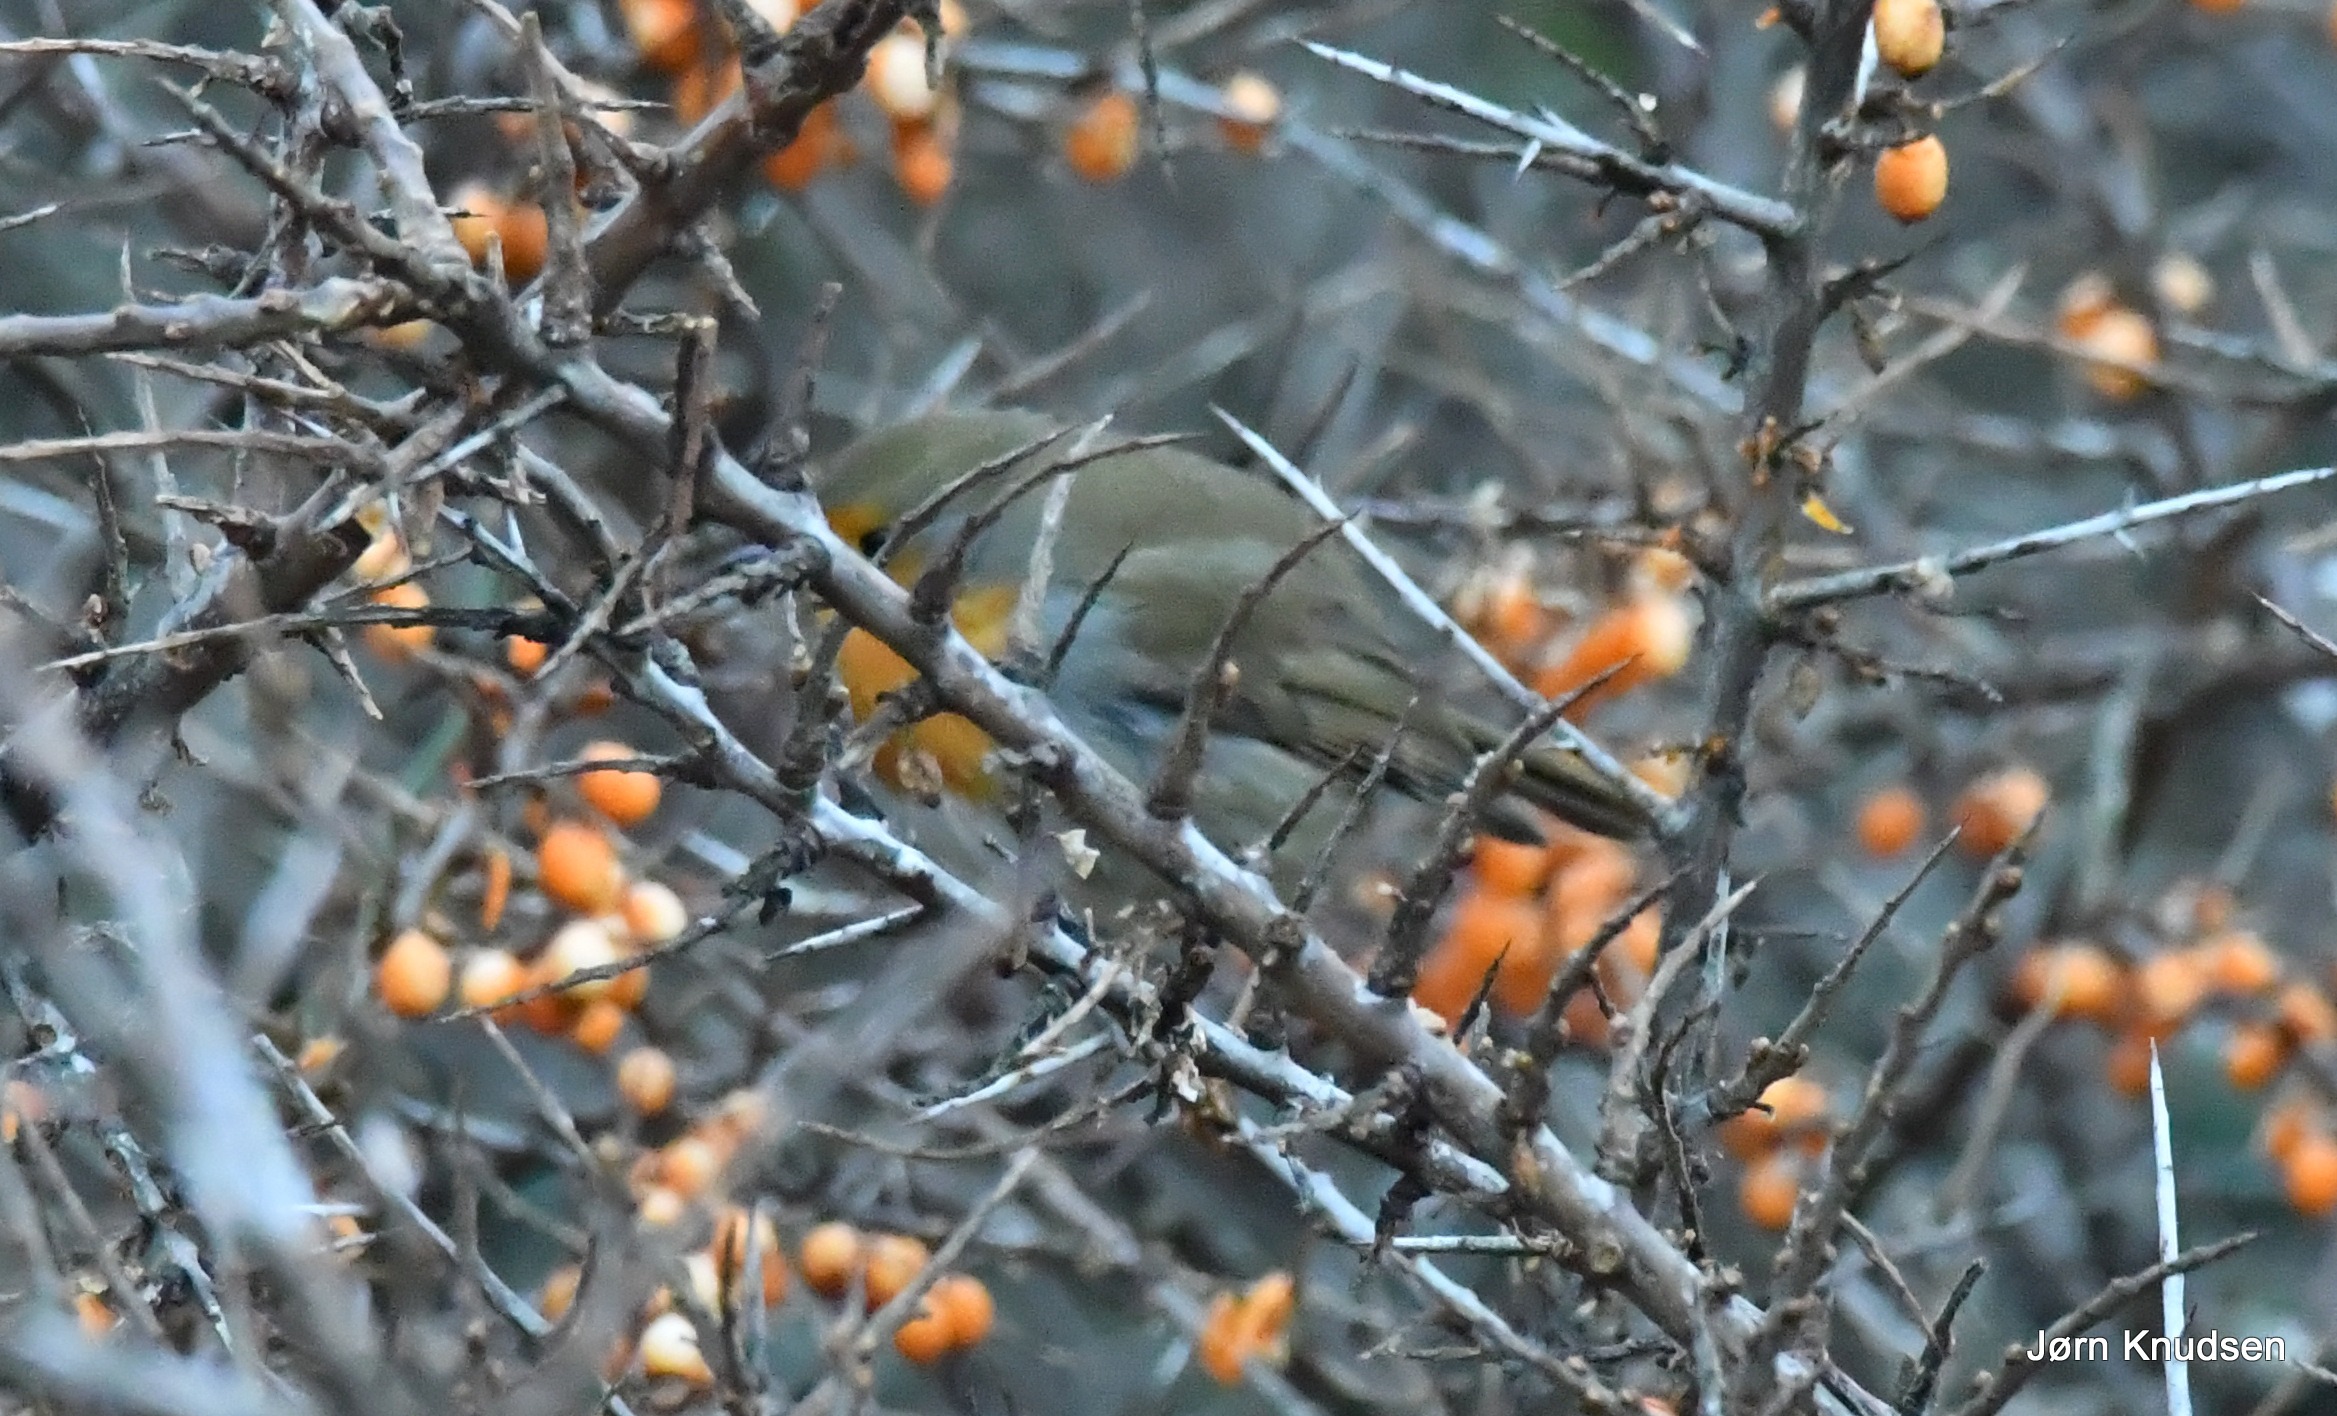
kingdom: Animalia
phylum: Chordata
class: Aves
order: Passeriformes
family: Muscicapidae
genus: Erithacus
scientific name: Erithacus rubecula
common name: Rødhals/rødkælk
